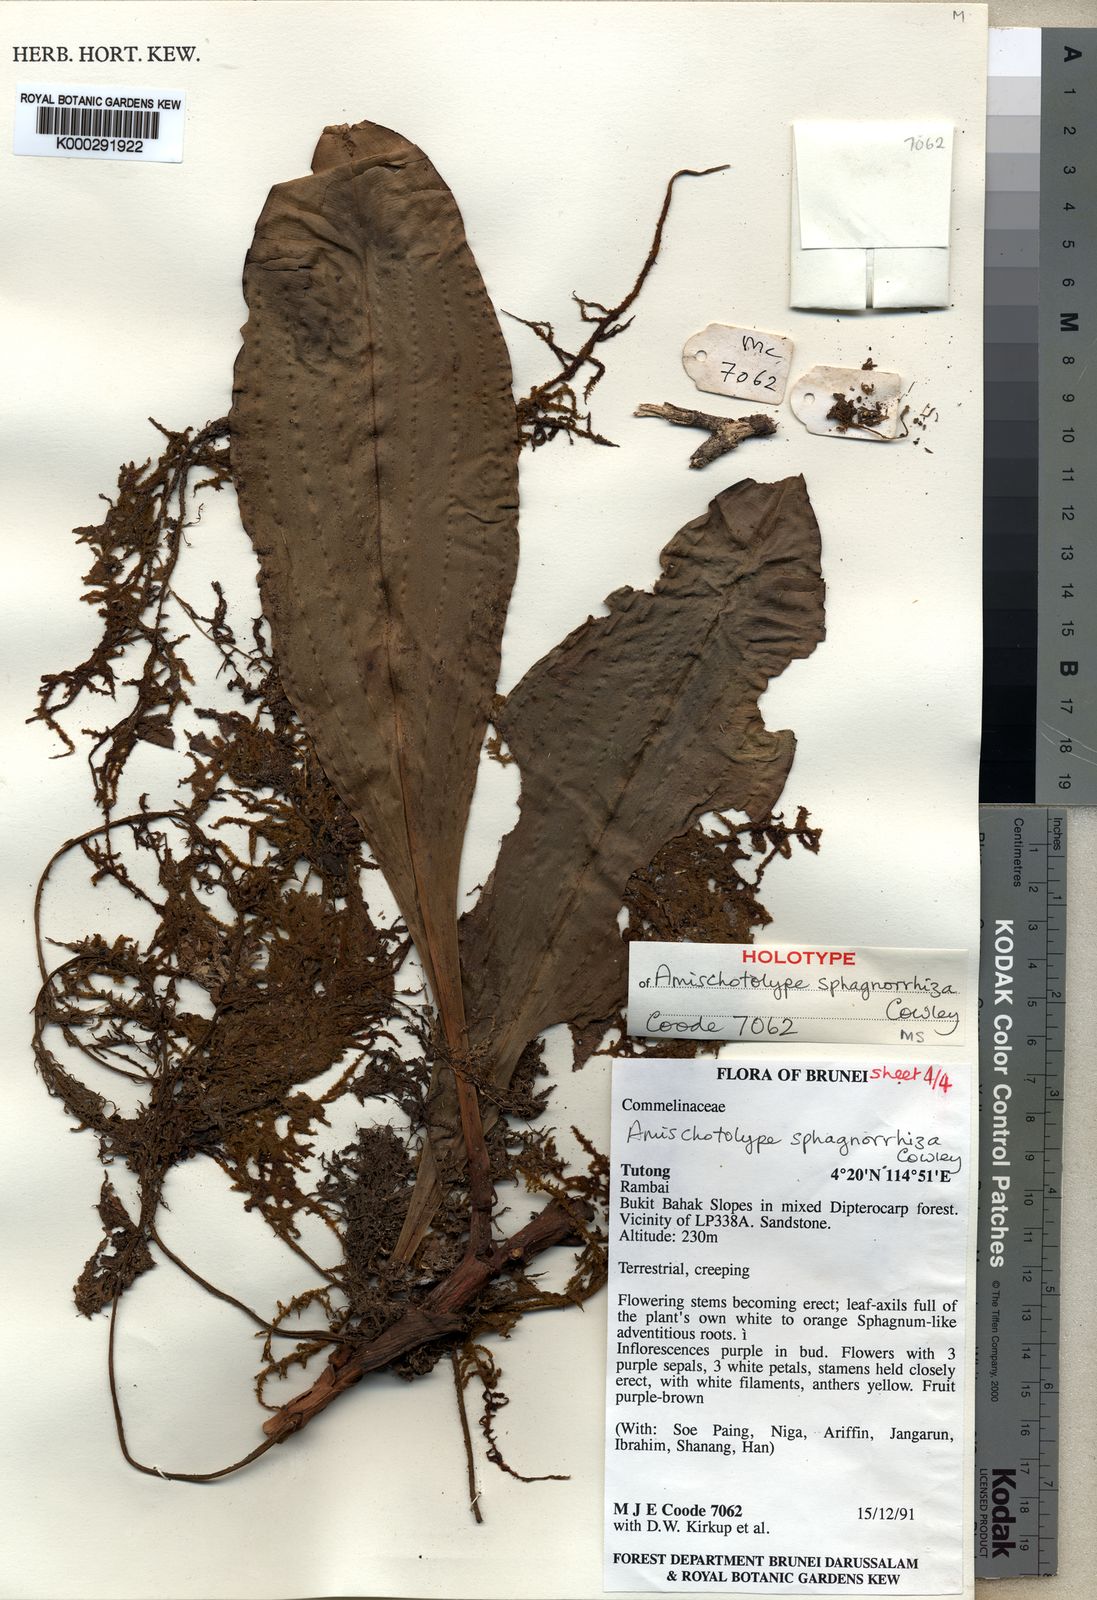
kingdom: Plantae
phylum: Tracheophyta
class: Liliopsida
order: Commelinales
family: Commelinaceae
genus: Amischotolype
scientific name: Amischotolype sphagnorrhiza
